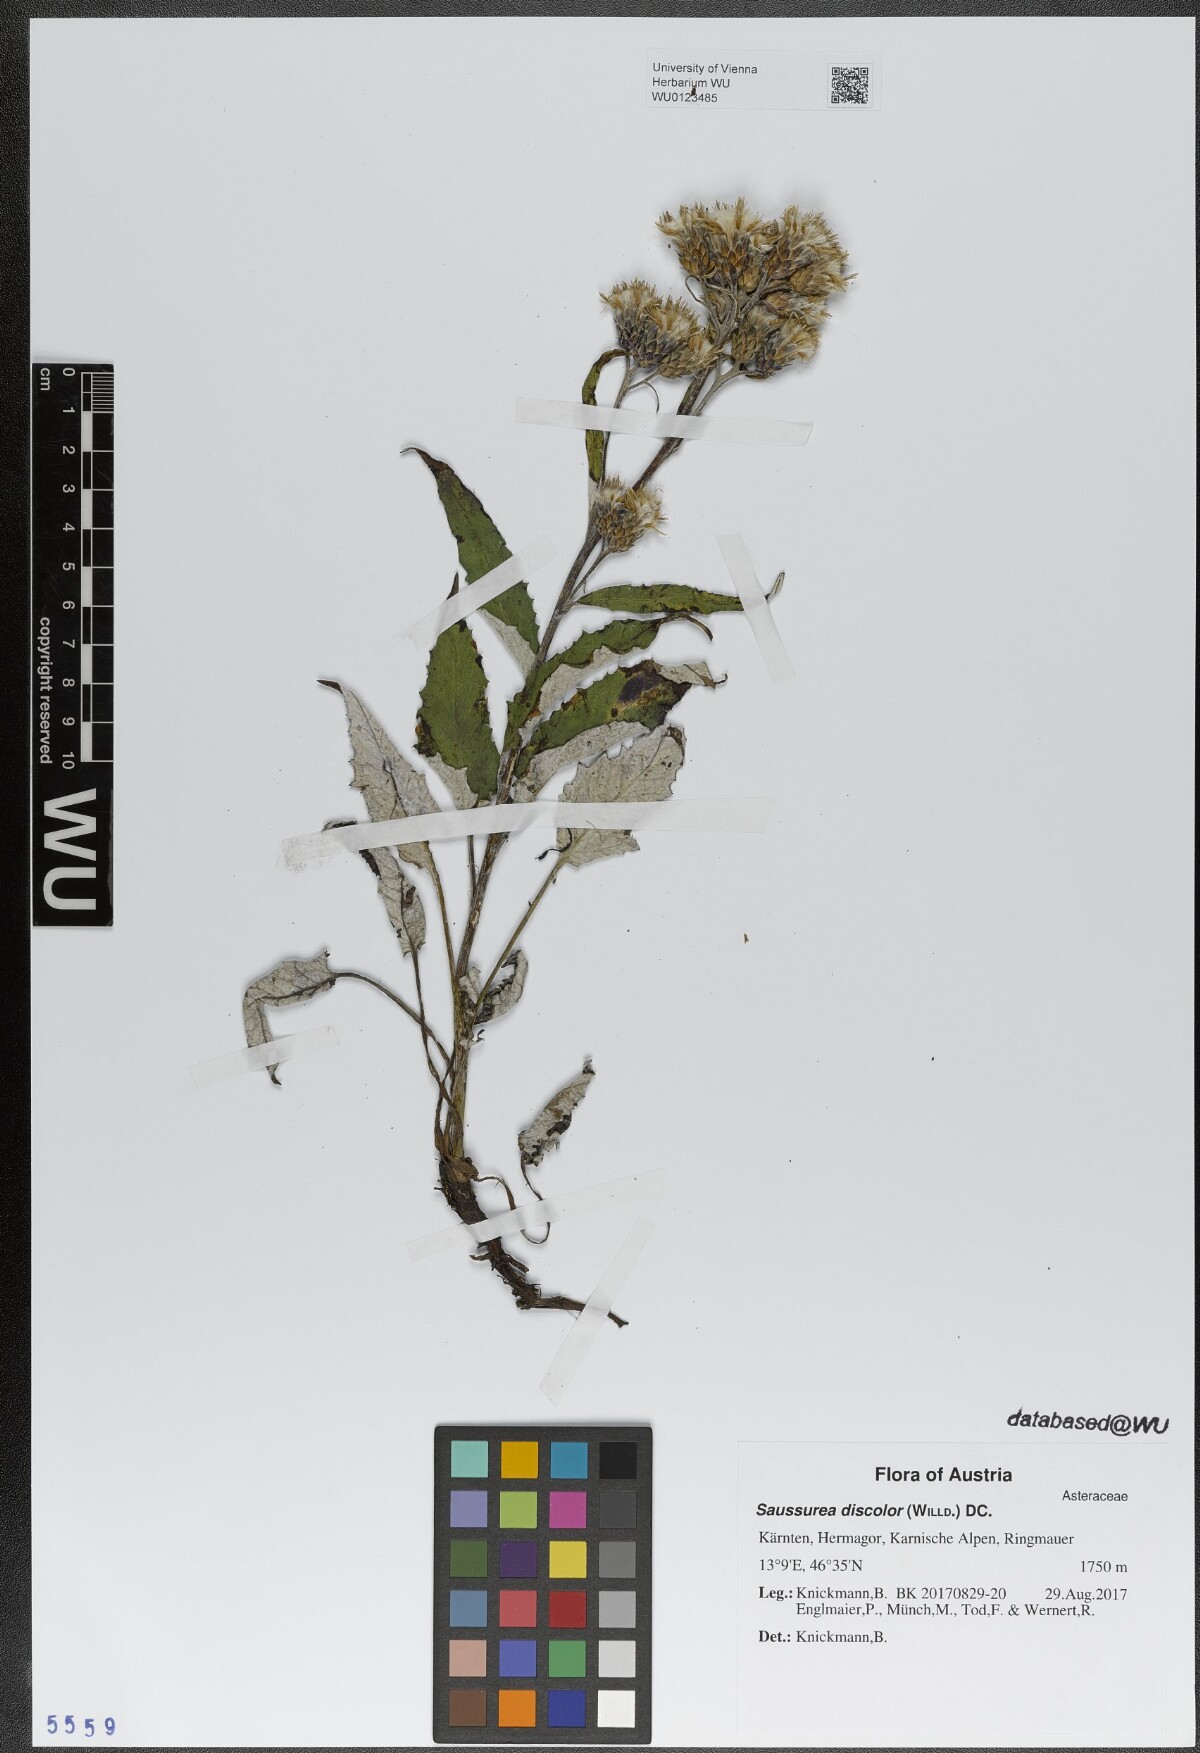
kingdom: Plantae
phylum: Tracheophyta
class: Magnoliopsida
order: Asterales
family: Asteraceae
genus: Saussurea
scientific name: Saussurea discolor
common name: Heart-leaved saussurea
